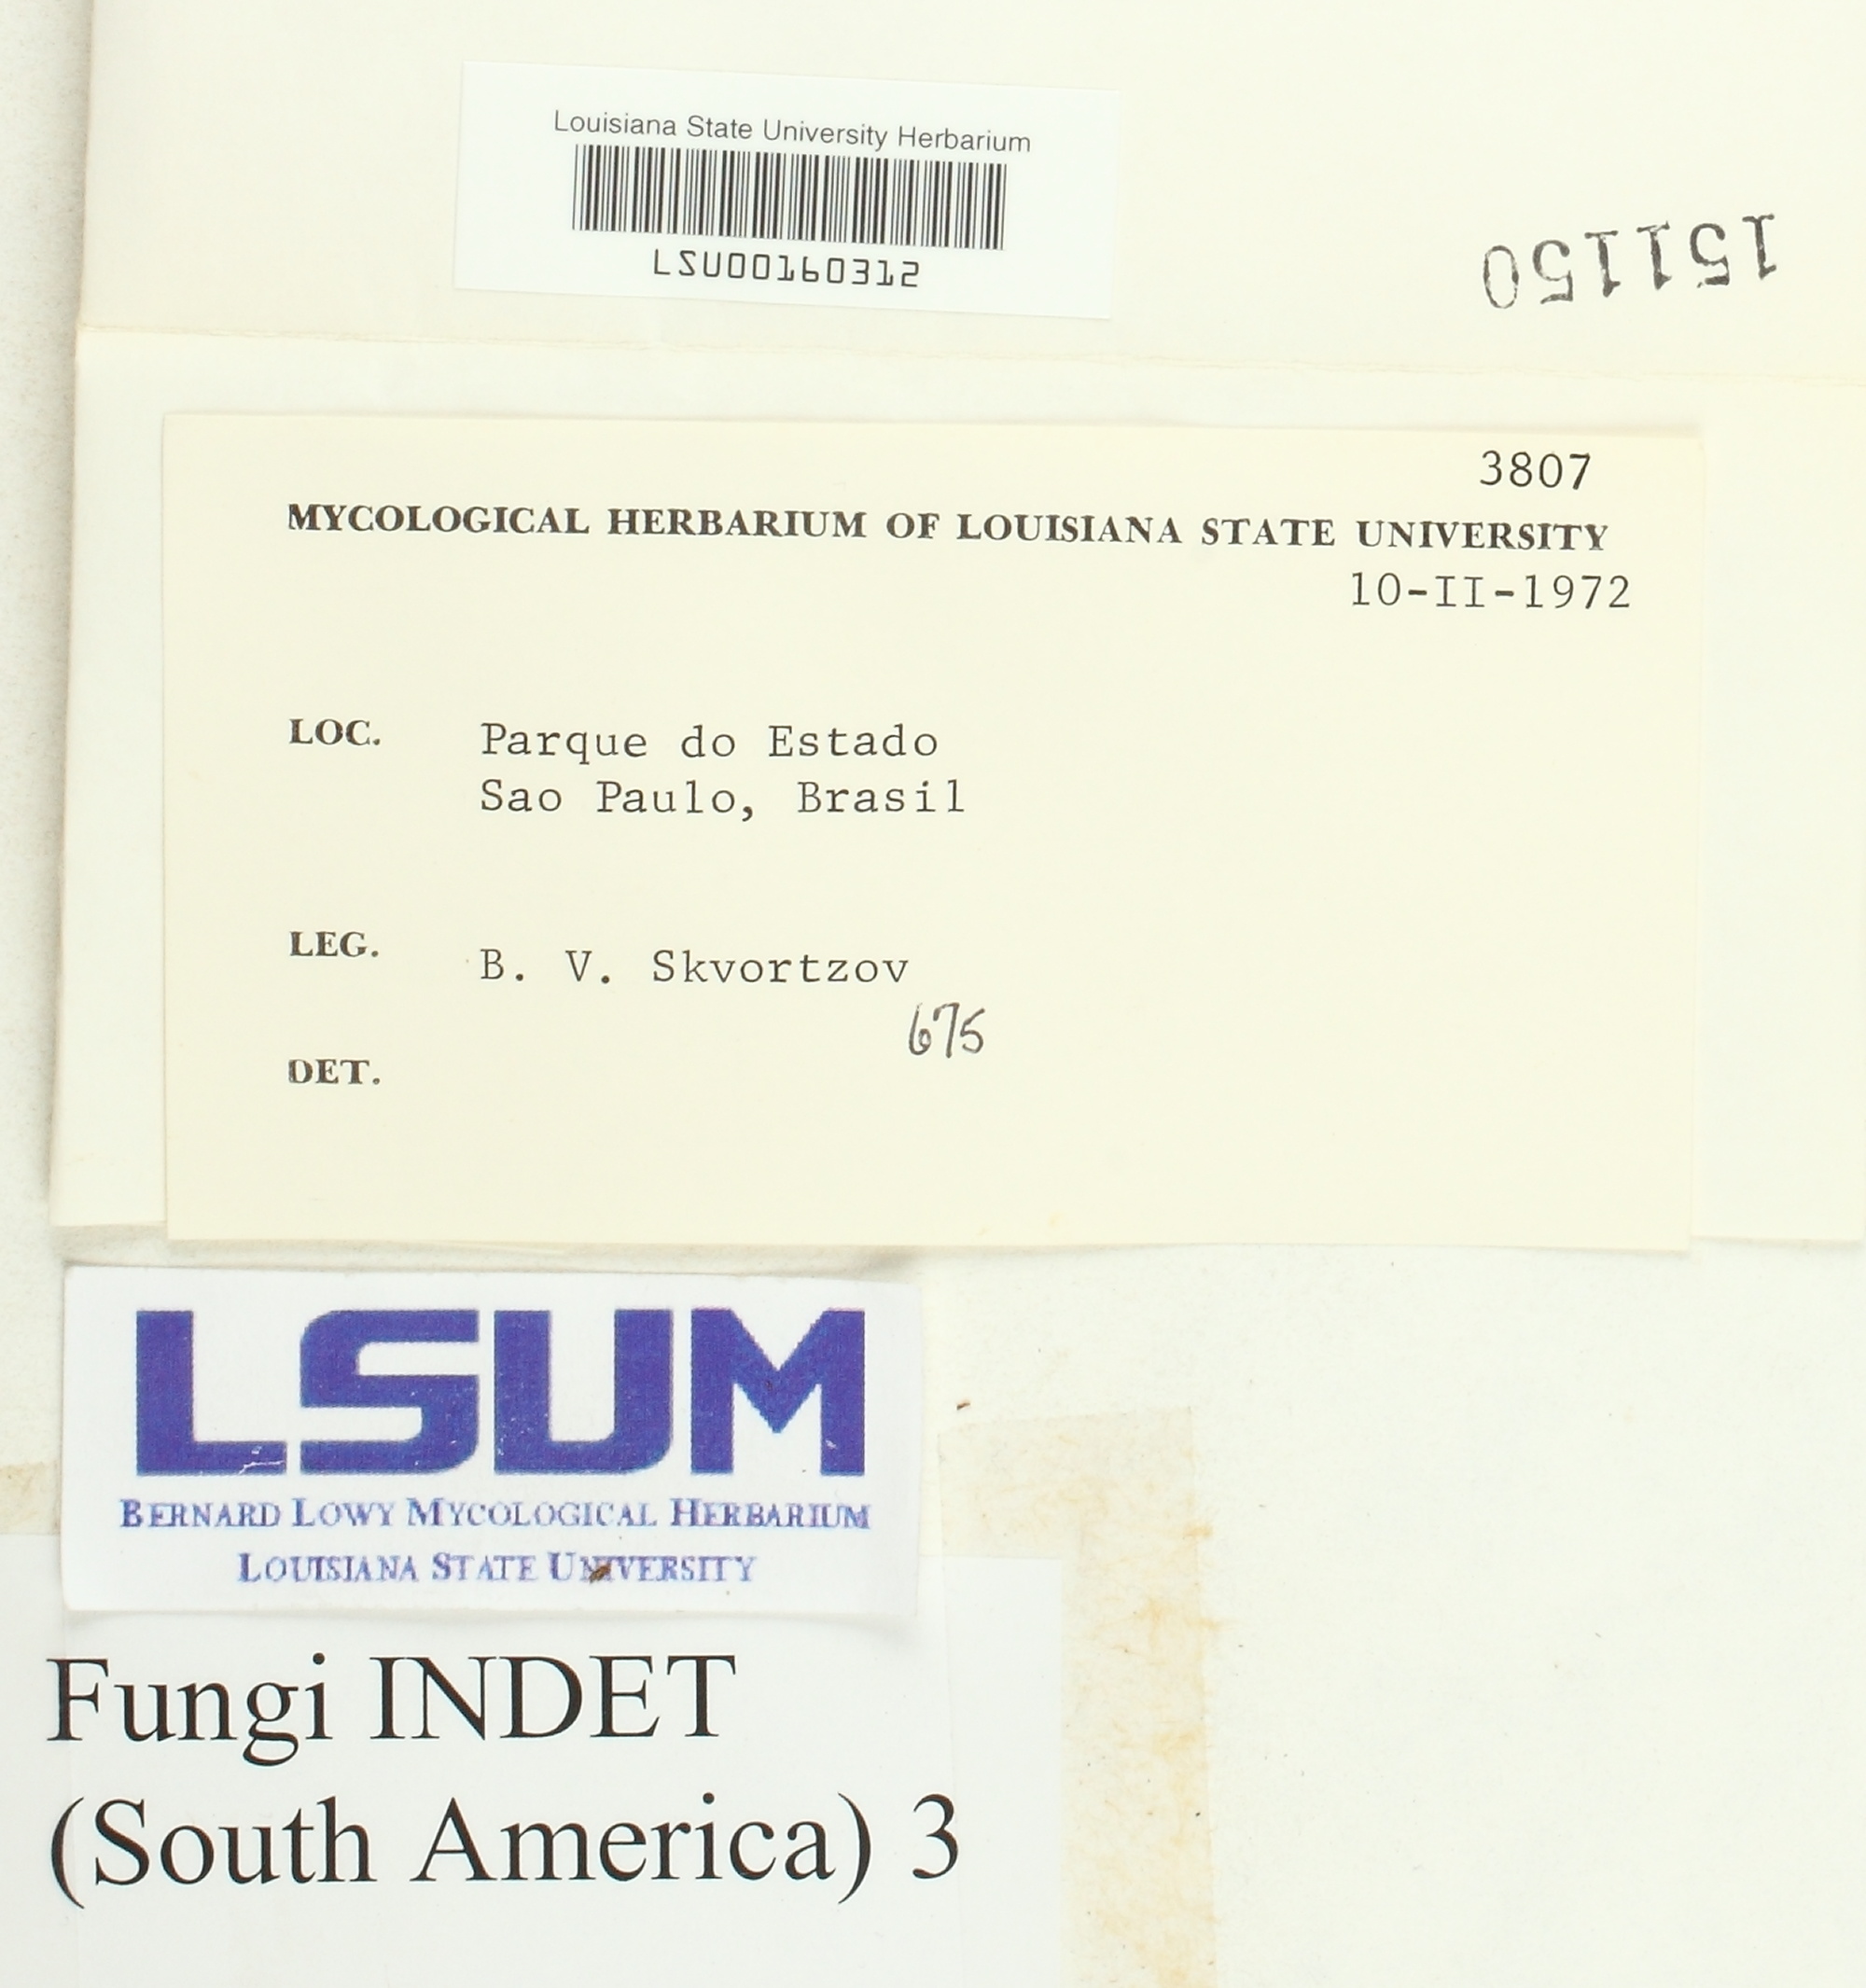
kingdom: Fungi
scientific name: Fungi
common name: Fungi
